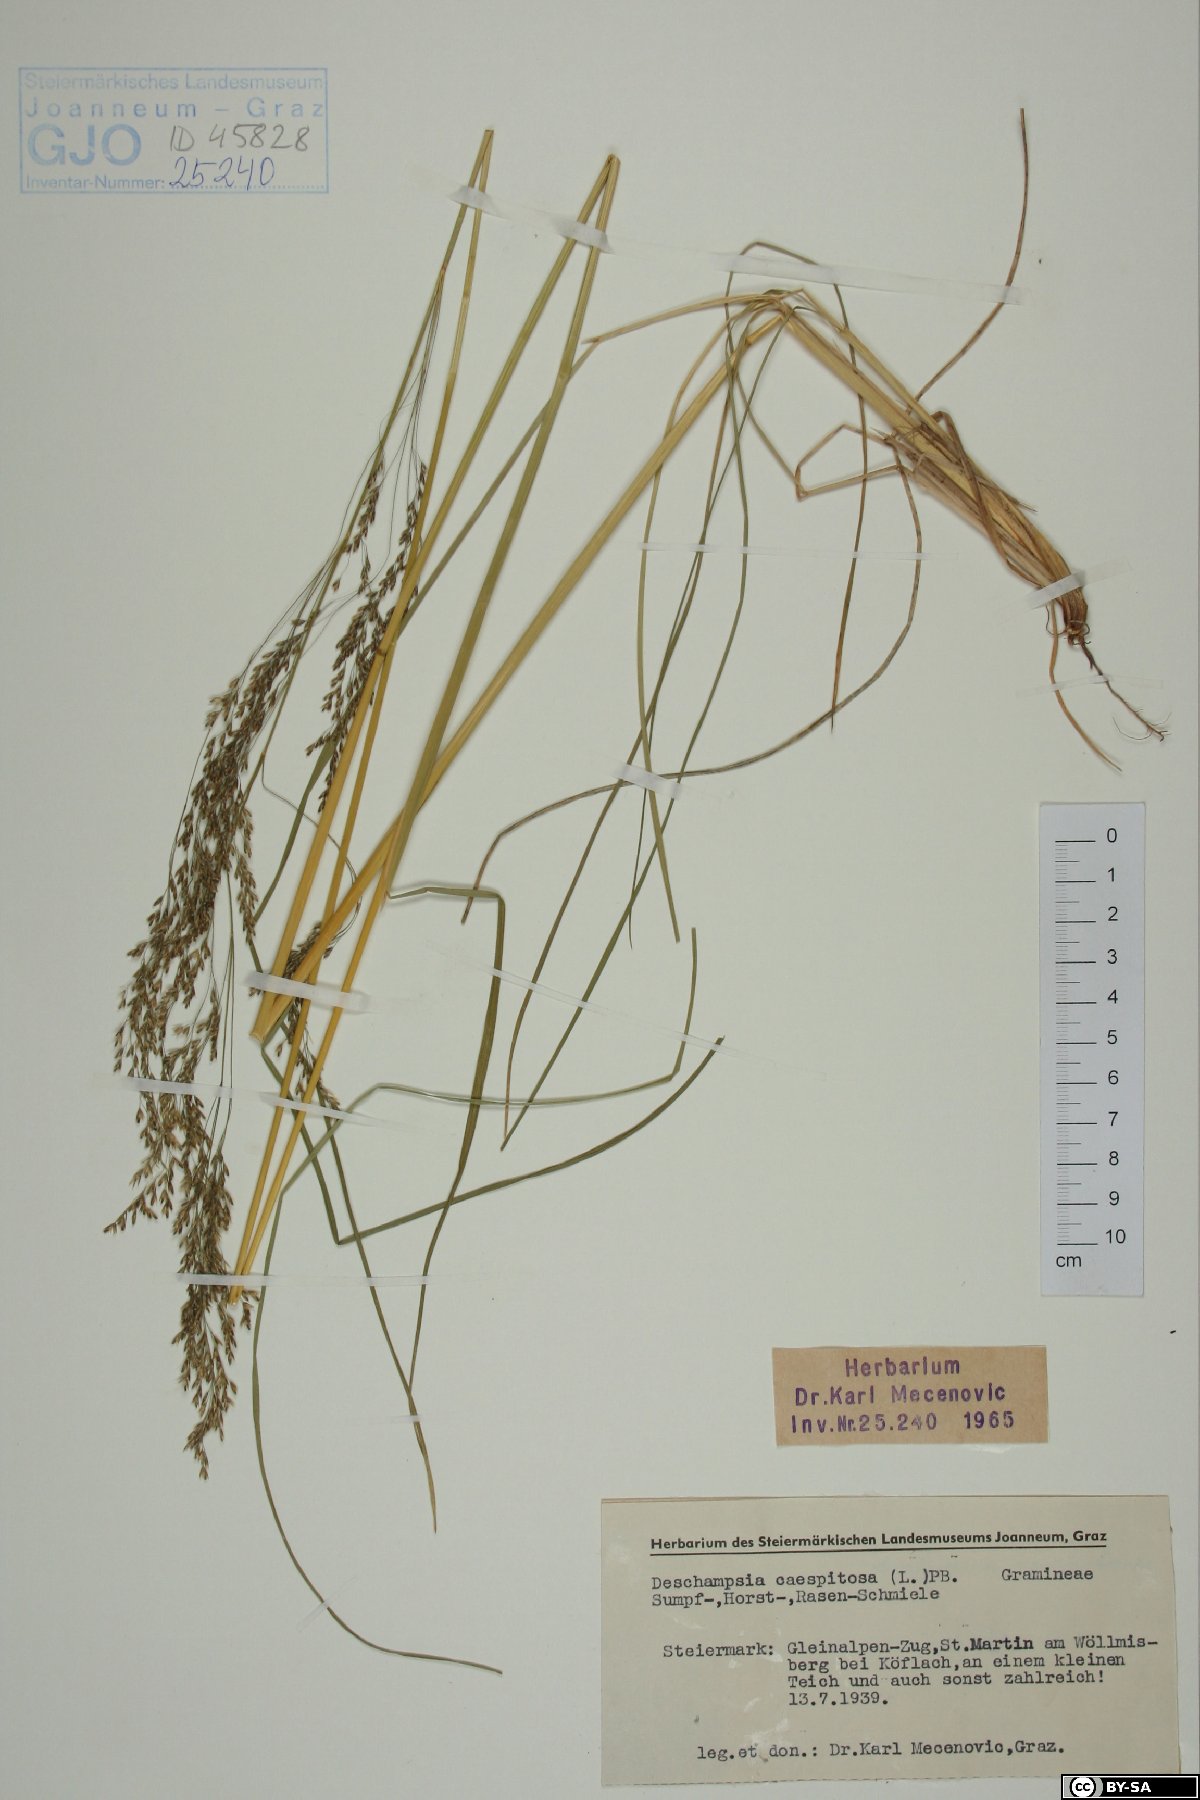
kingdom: Plantae
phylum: Tracheophyta
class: Liliopsida
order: Poales
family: Poaceae
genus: Deschampsia
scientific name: Deschampsia cespitosa
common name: Tufted hair-grass
